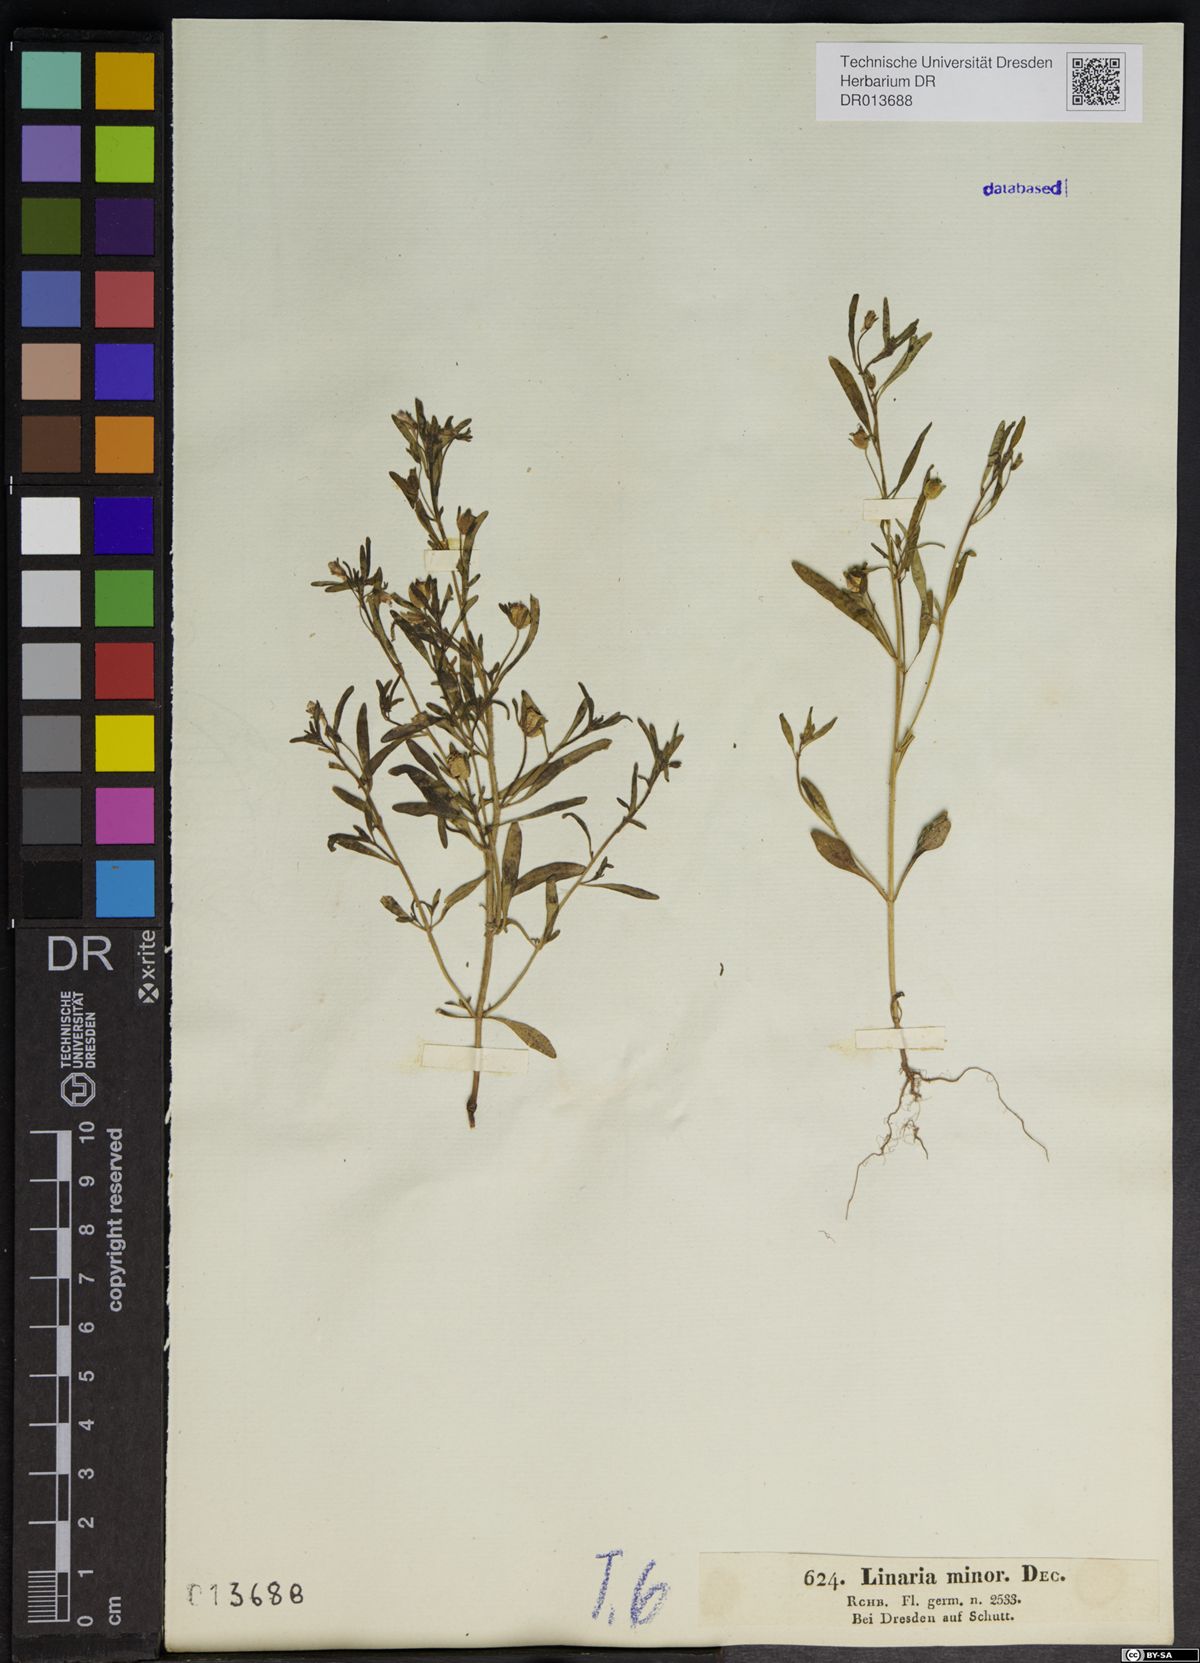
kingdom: Plantae
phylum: Tracheophyta
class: Magnoliopsida
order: Lamiales
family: Plantaginaceae
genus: Chaenorhinum
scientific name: Chaenorhinum minus
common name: Dwarf snapdragon
